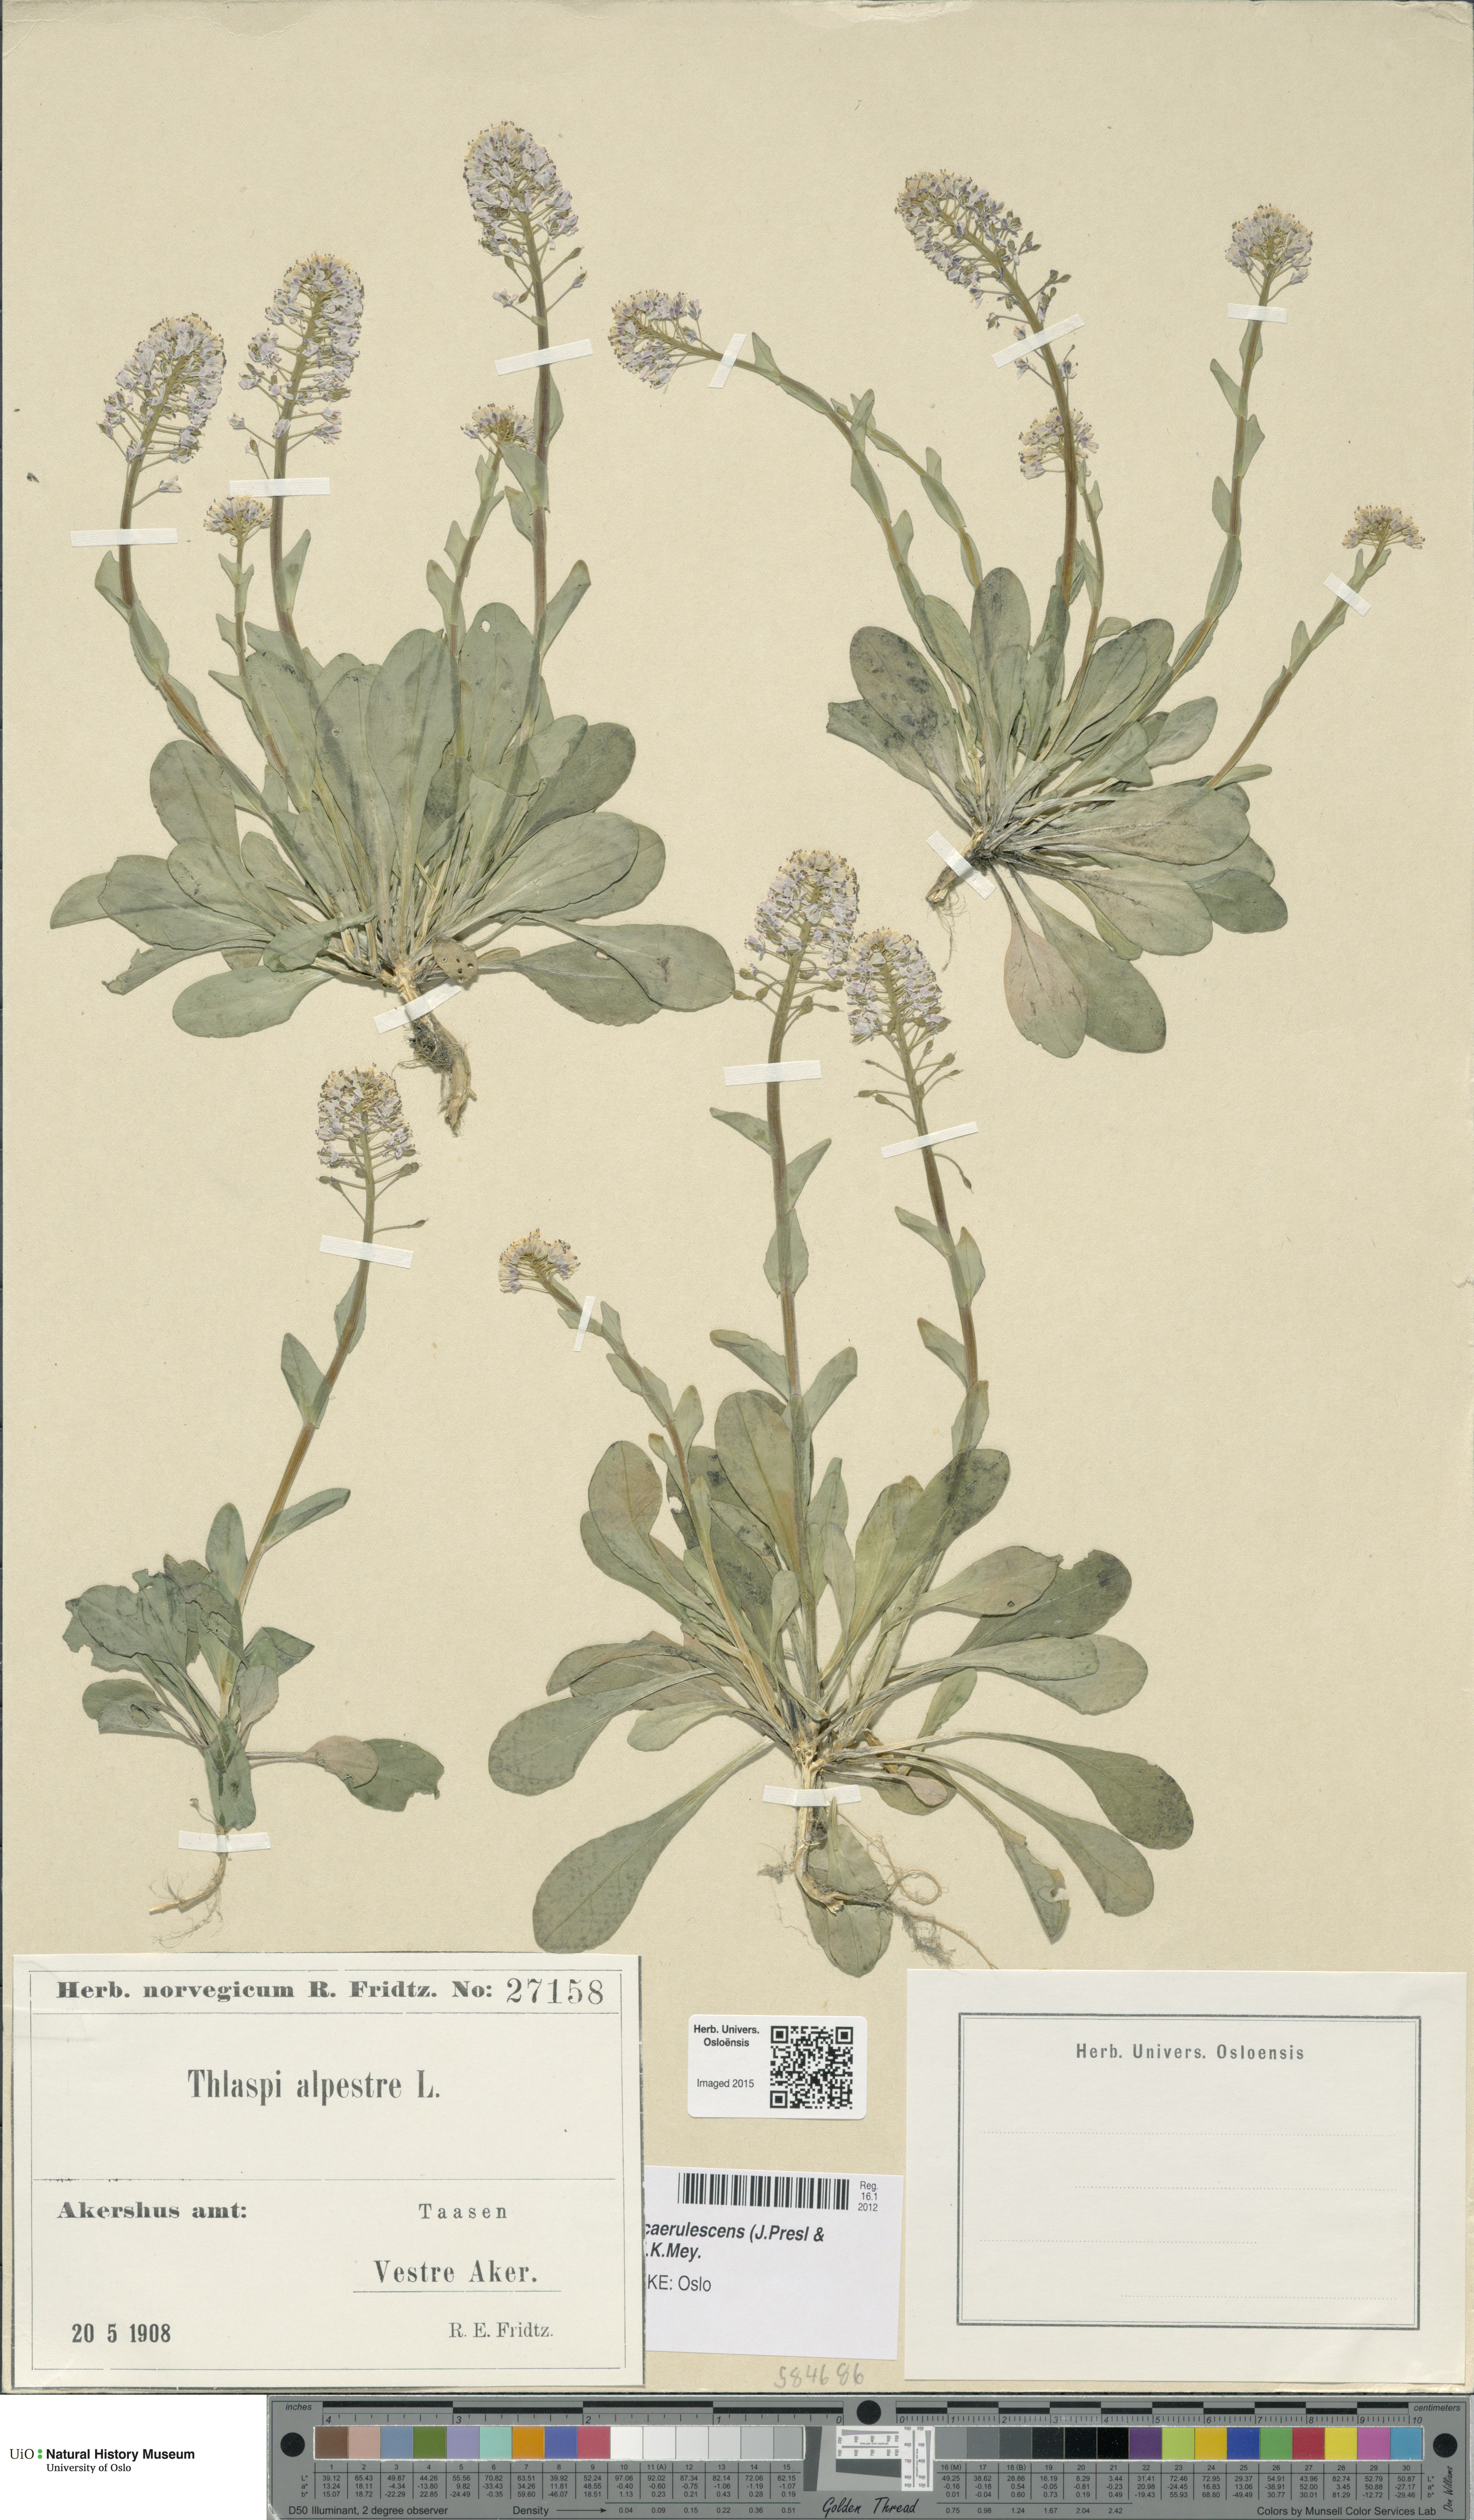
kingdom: Plantae
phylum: Tracheophyta
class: Magnoliopsida
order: Brassicales
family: Brassicaceae
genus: Noccaea
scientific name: Noccaea caerulescens
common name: Alpine pennycress
